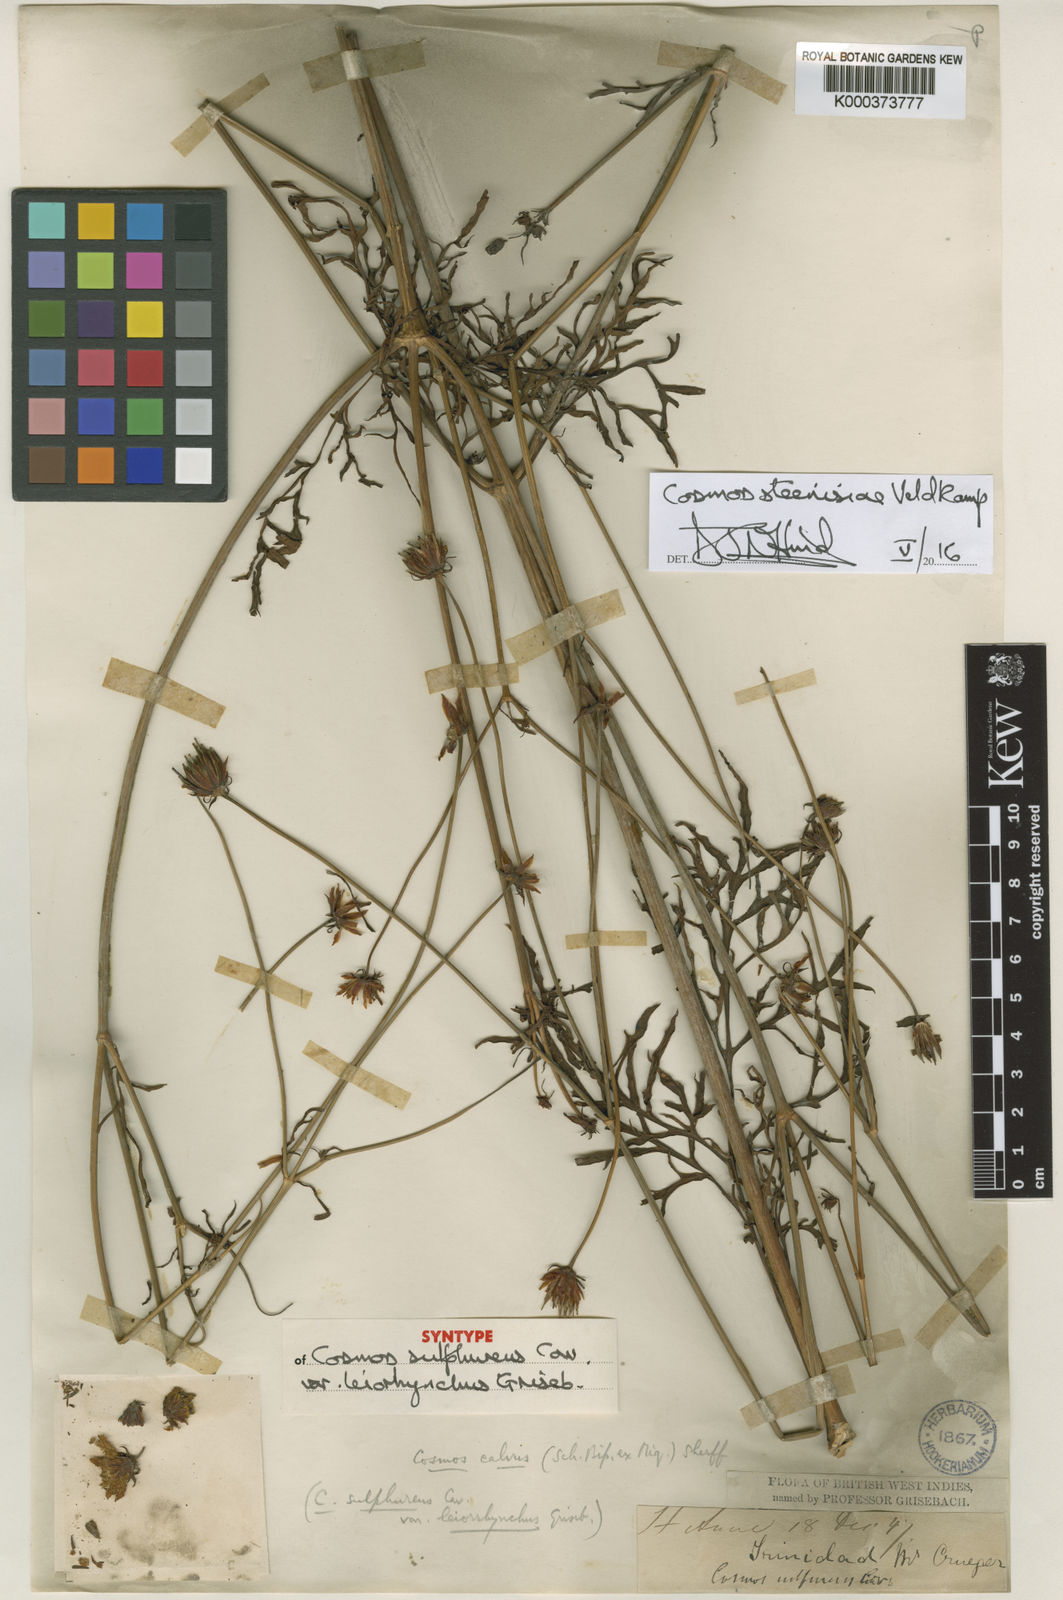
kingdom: Plantae
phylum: Tracheophyta
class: Magnoliopsida
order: Asterales
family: Asteraceae
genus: Cosmos
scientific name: Cosmos steenisiae
